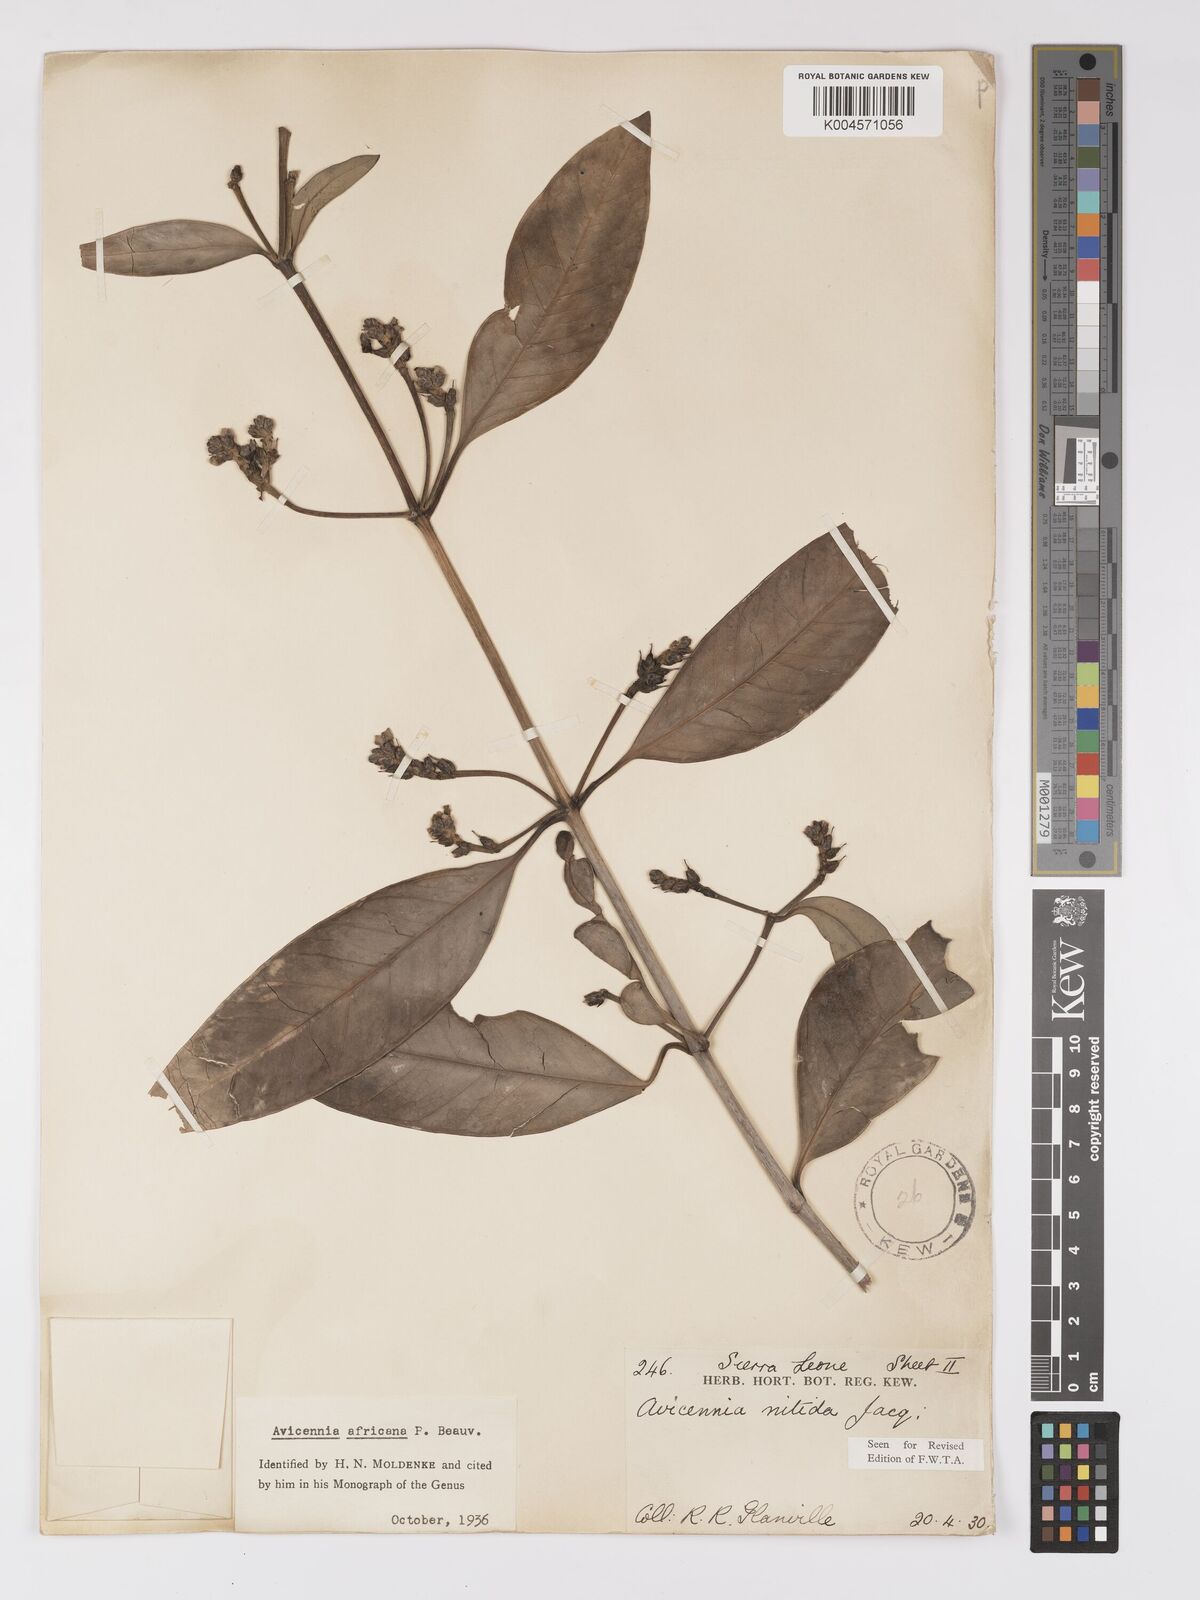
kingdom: Plantae
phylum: Tracheophyta
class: Magnoliopsida
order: Lamiales
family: Acanthaceae
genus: Avicennia
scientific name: Avicennia germinans
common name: Black mangrove
